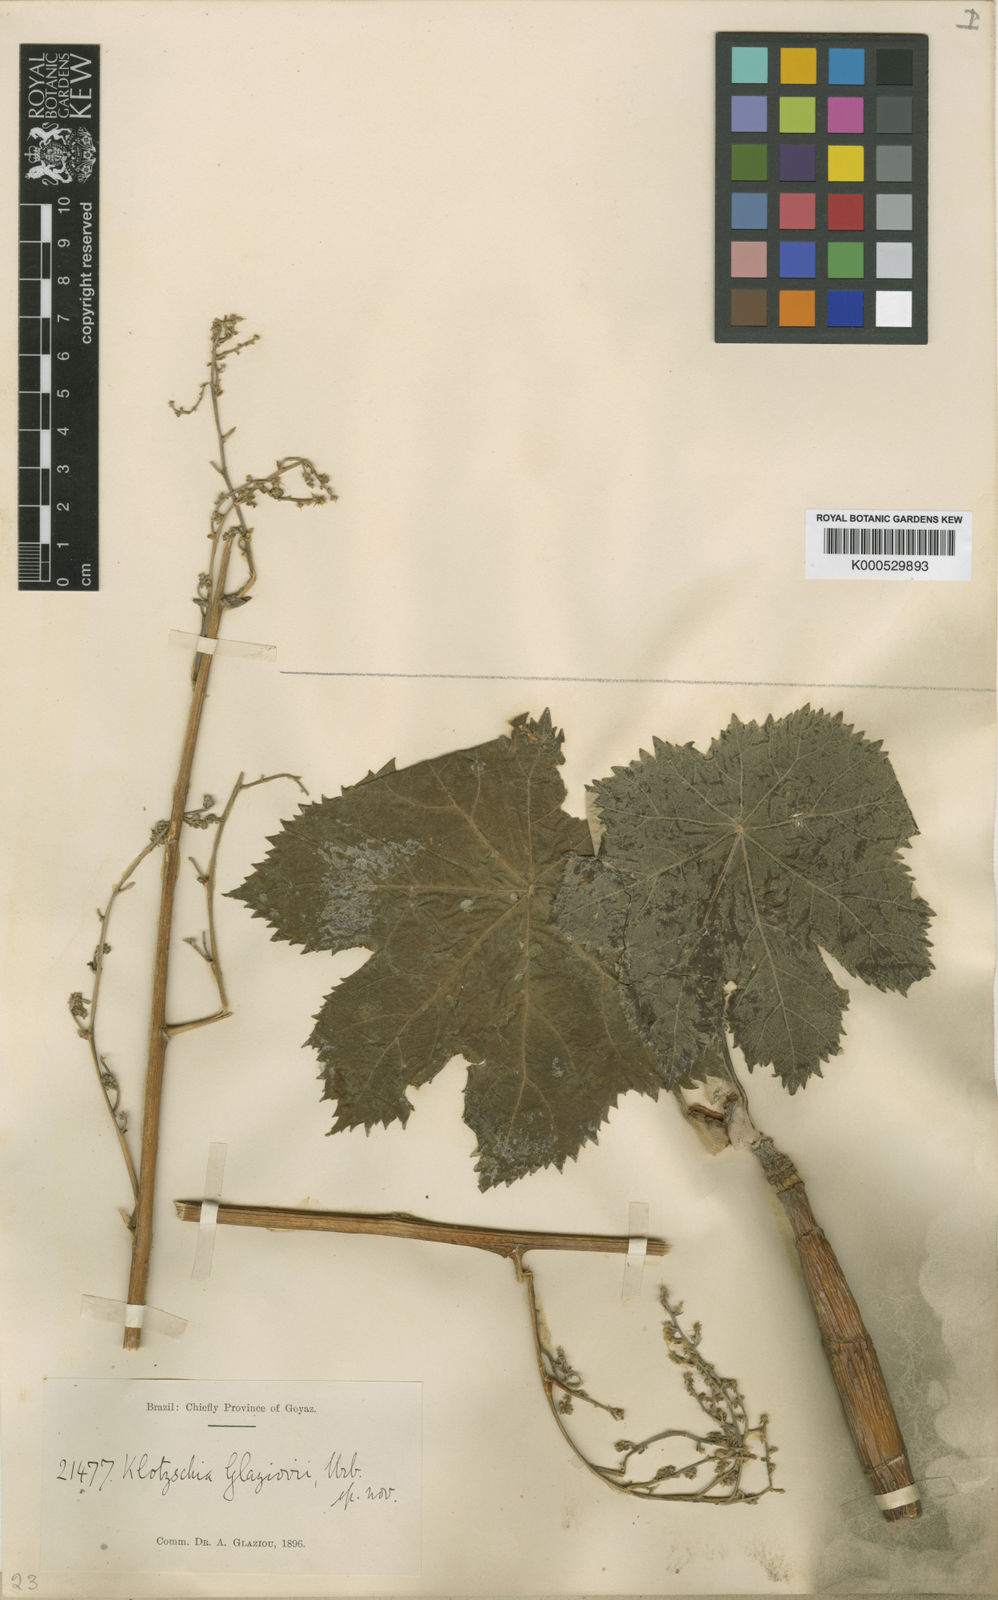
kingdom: Plantae
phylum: Tracheophyta
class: Magnoliopsida
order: Apiales
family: Apiaceae
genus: Klotzschia
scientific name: Klotzschia glaziovii
